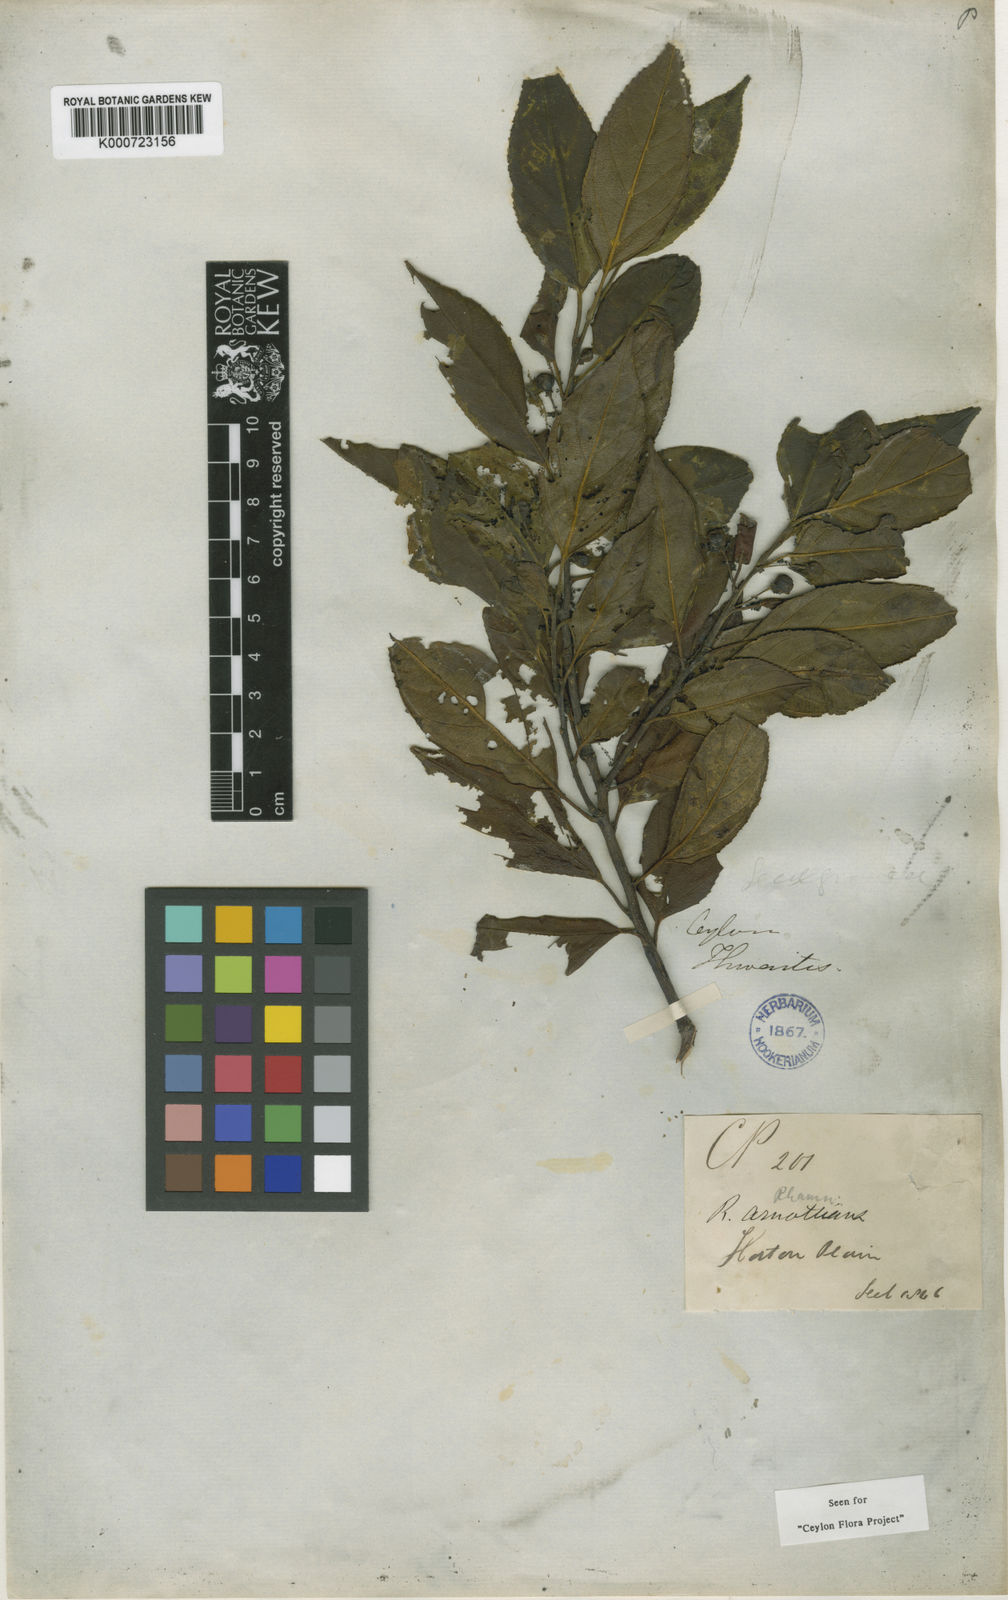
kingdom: Plantae
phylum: Tracheophyta
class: Magnoliopsida
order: Rosales
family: Rhamnaceae
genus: Rhamnus
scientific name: Rhamnus arnottiana
